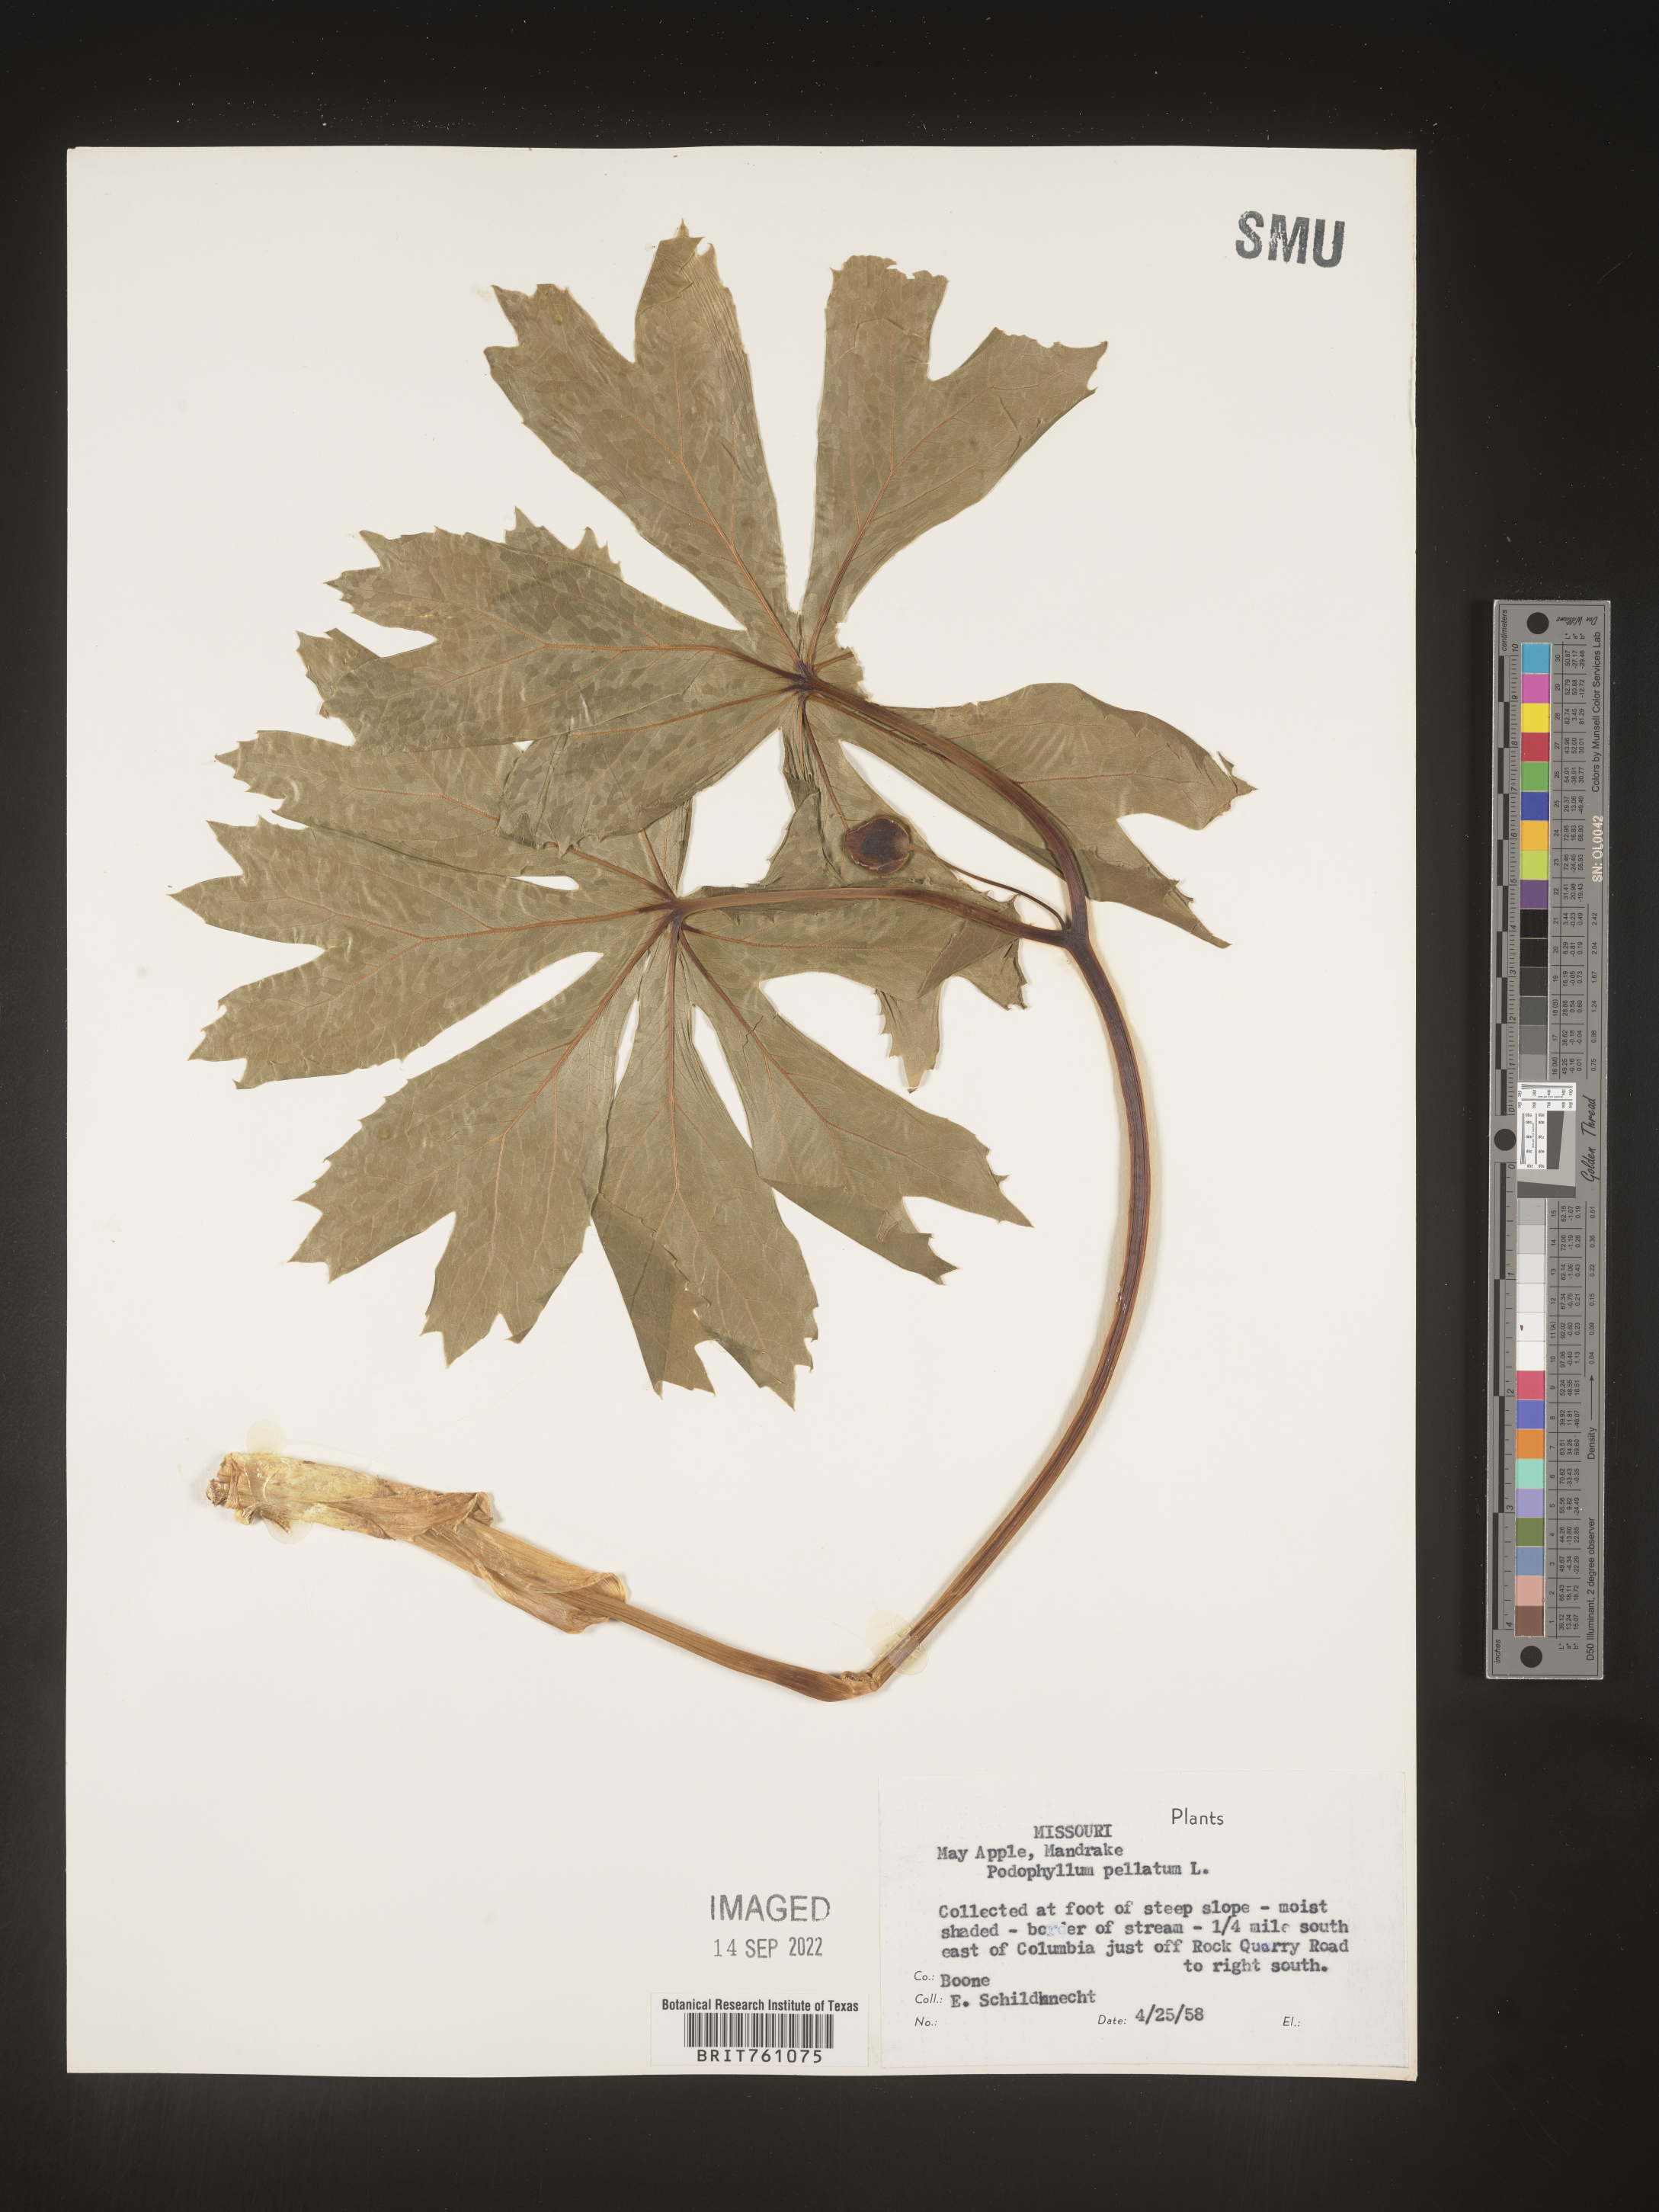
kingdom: Plantae
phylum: Tracheophyta
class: Magnoliopsida
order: Ranunculales
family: Berberidaceae
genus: Podophyllum
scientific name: Podophyllum peltatum
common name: Wild mandrake
